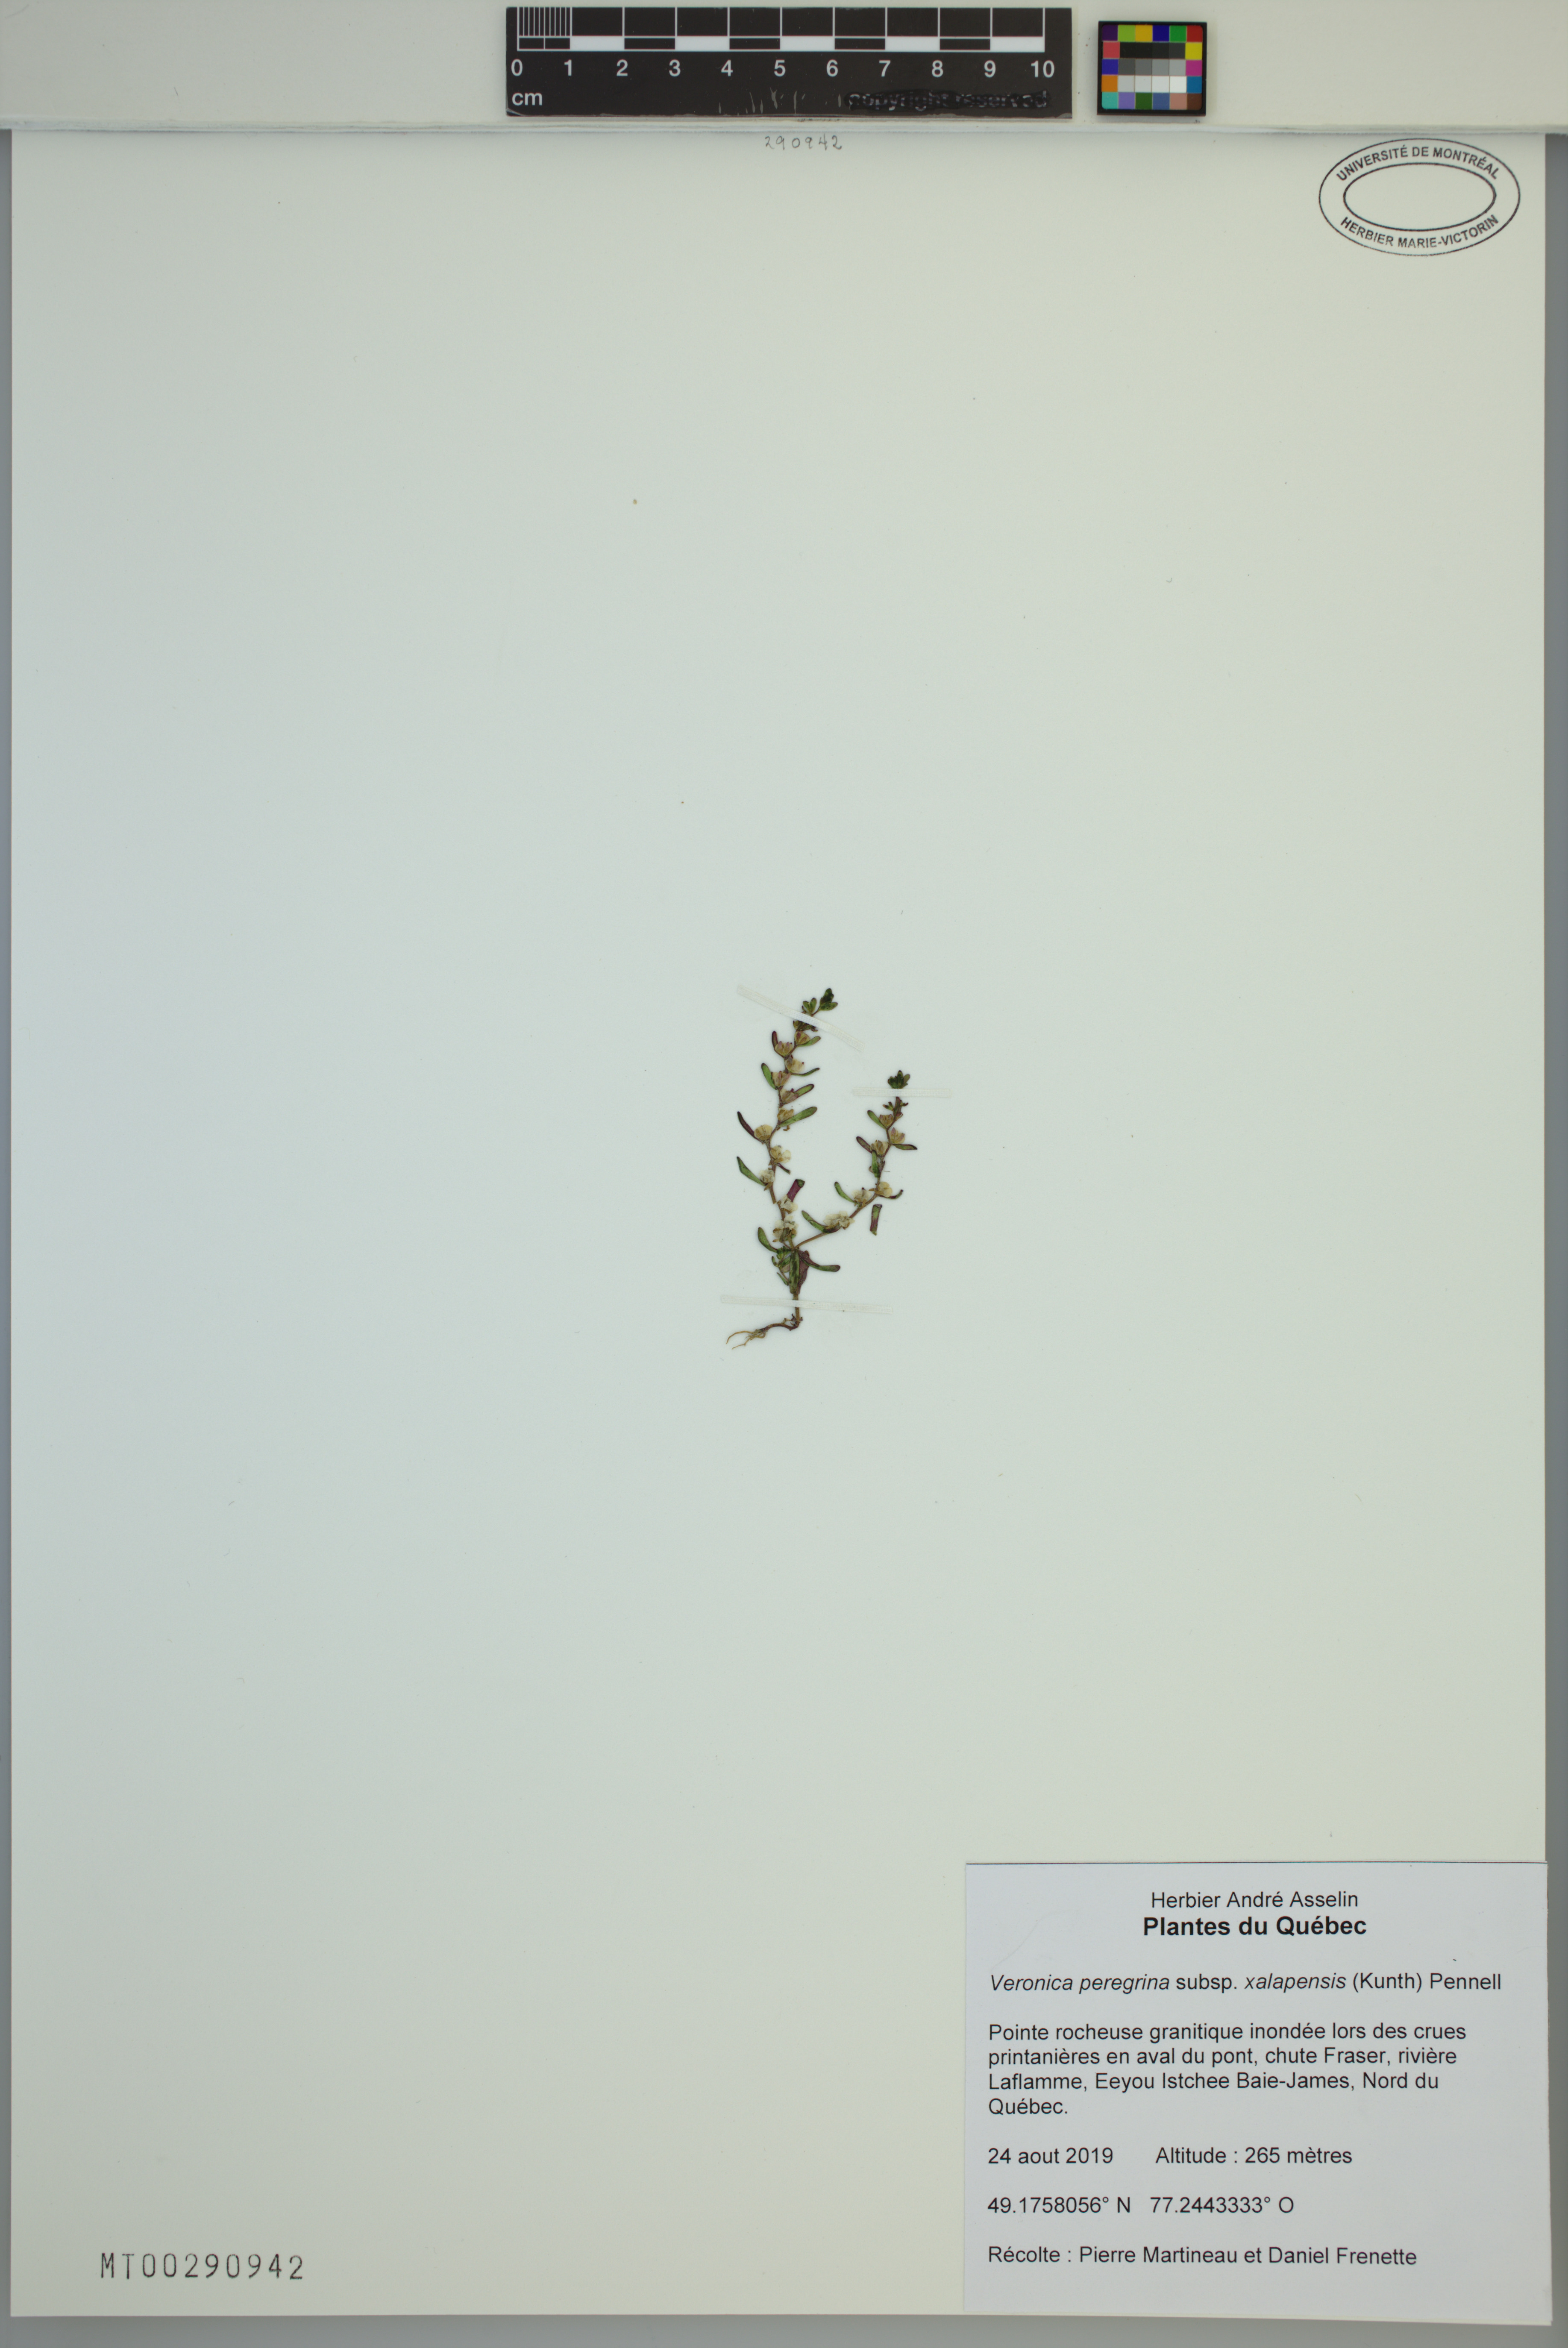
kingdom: Plantae
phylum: Tracheophyta
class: Magnoliopsida
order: Lamiales
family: Plantaginaceae
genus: Veronica
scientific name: Veronica peregrina
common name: Neckweed
